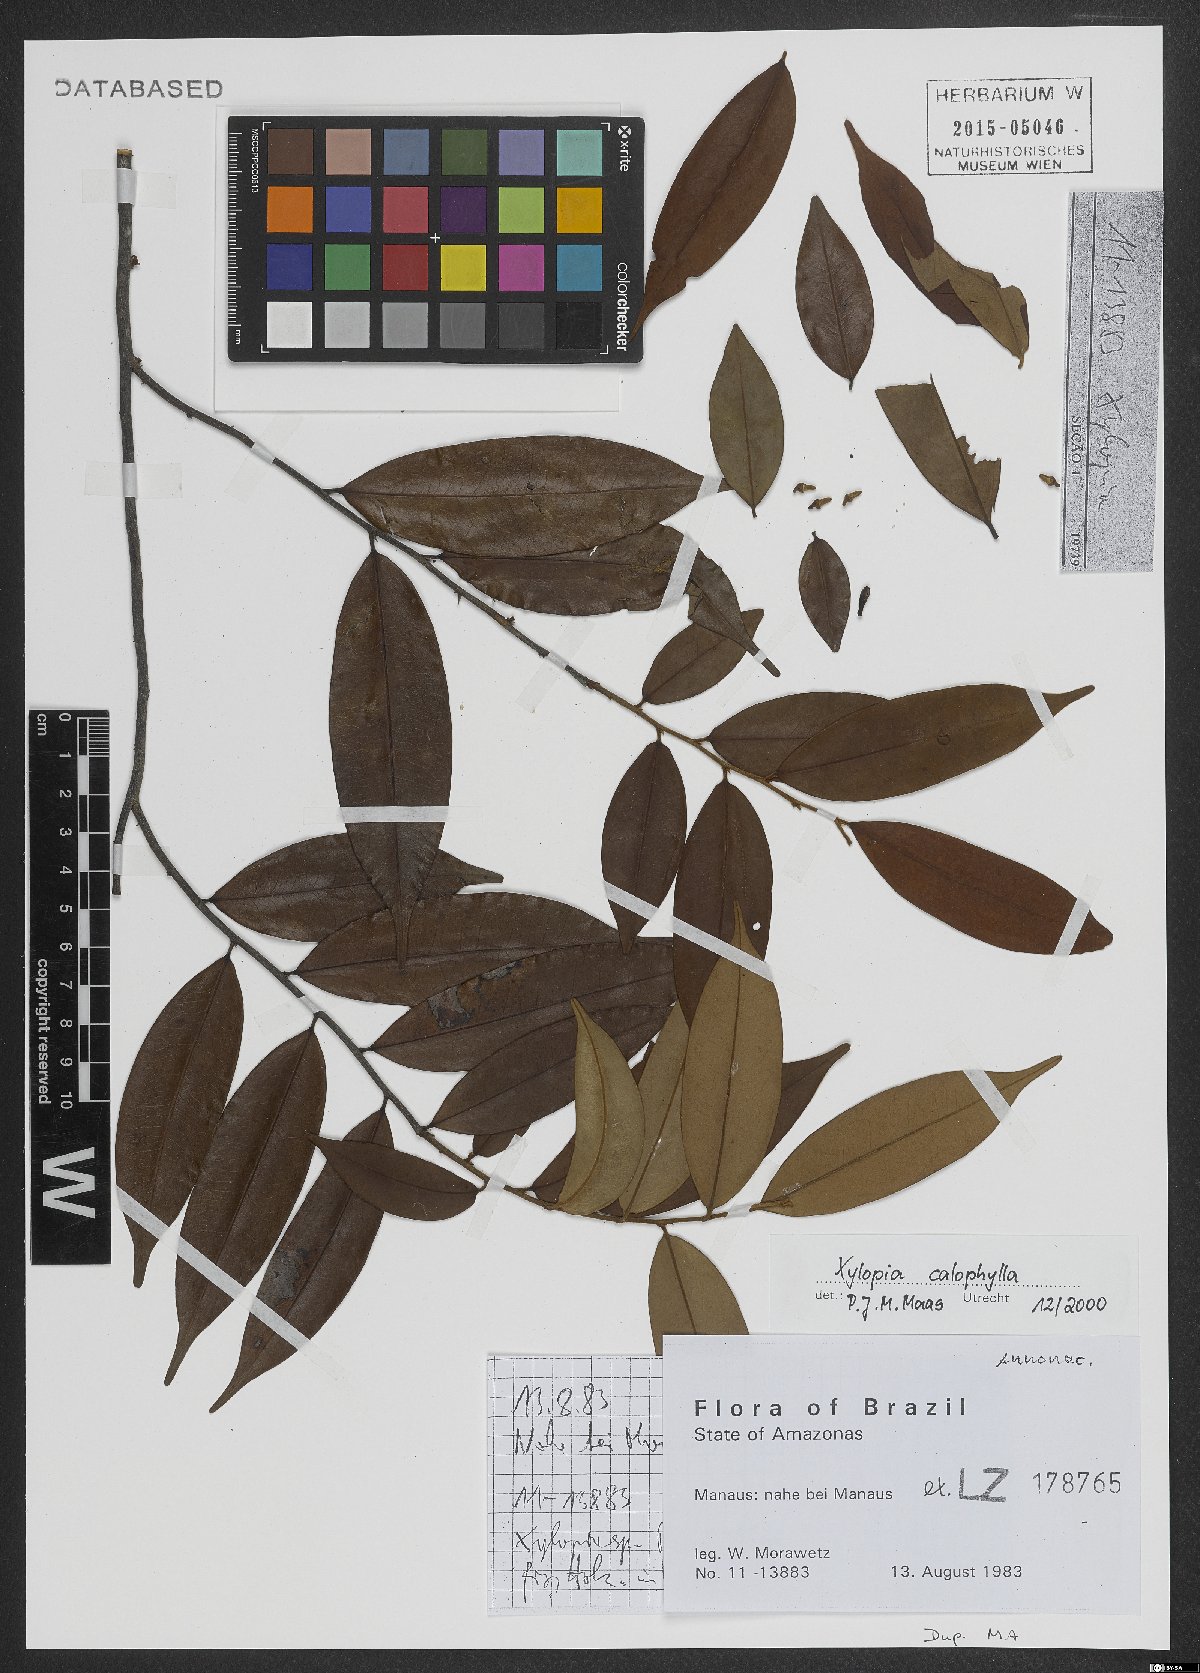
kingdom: Plantae
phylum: Tracheophyta
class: Magnoliopsida
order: Magnoliales
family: Annonaceae
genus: Xylopia
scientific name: Xylopia calophylla
